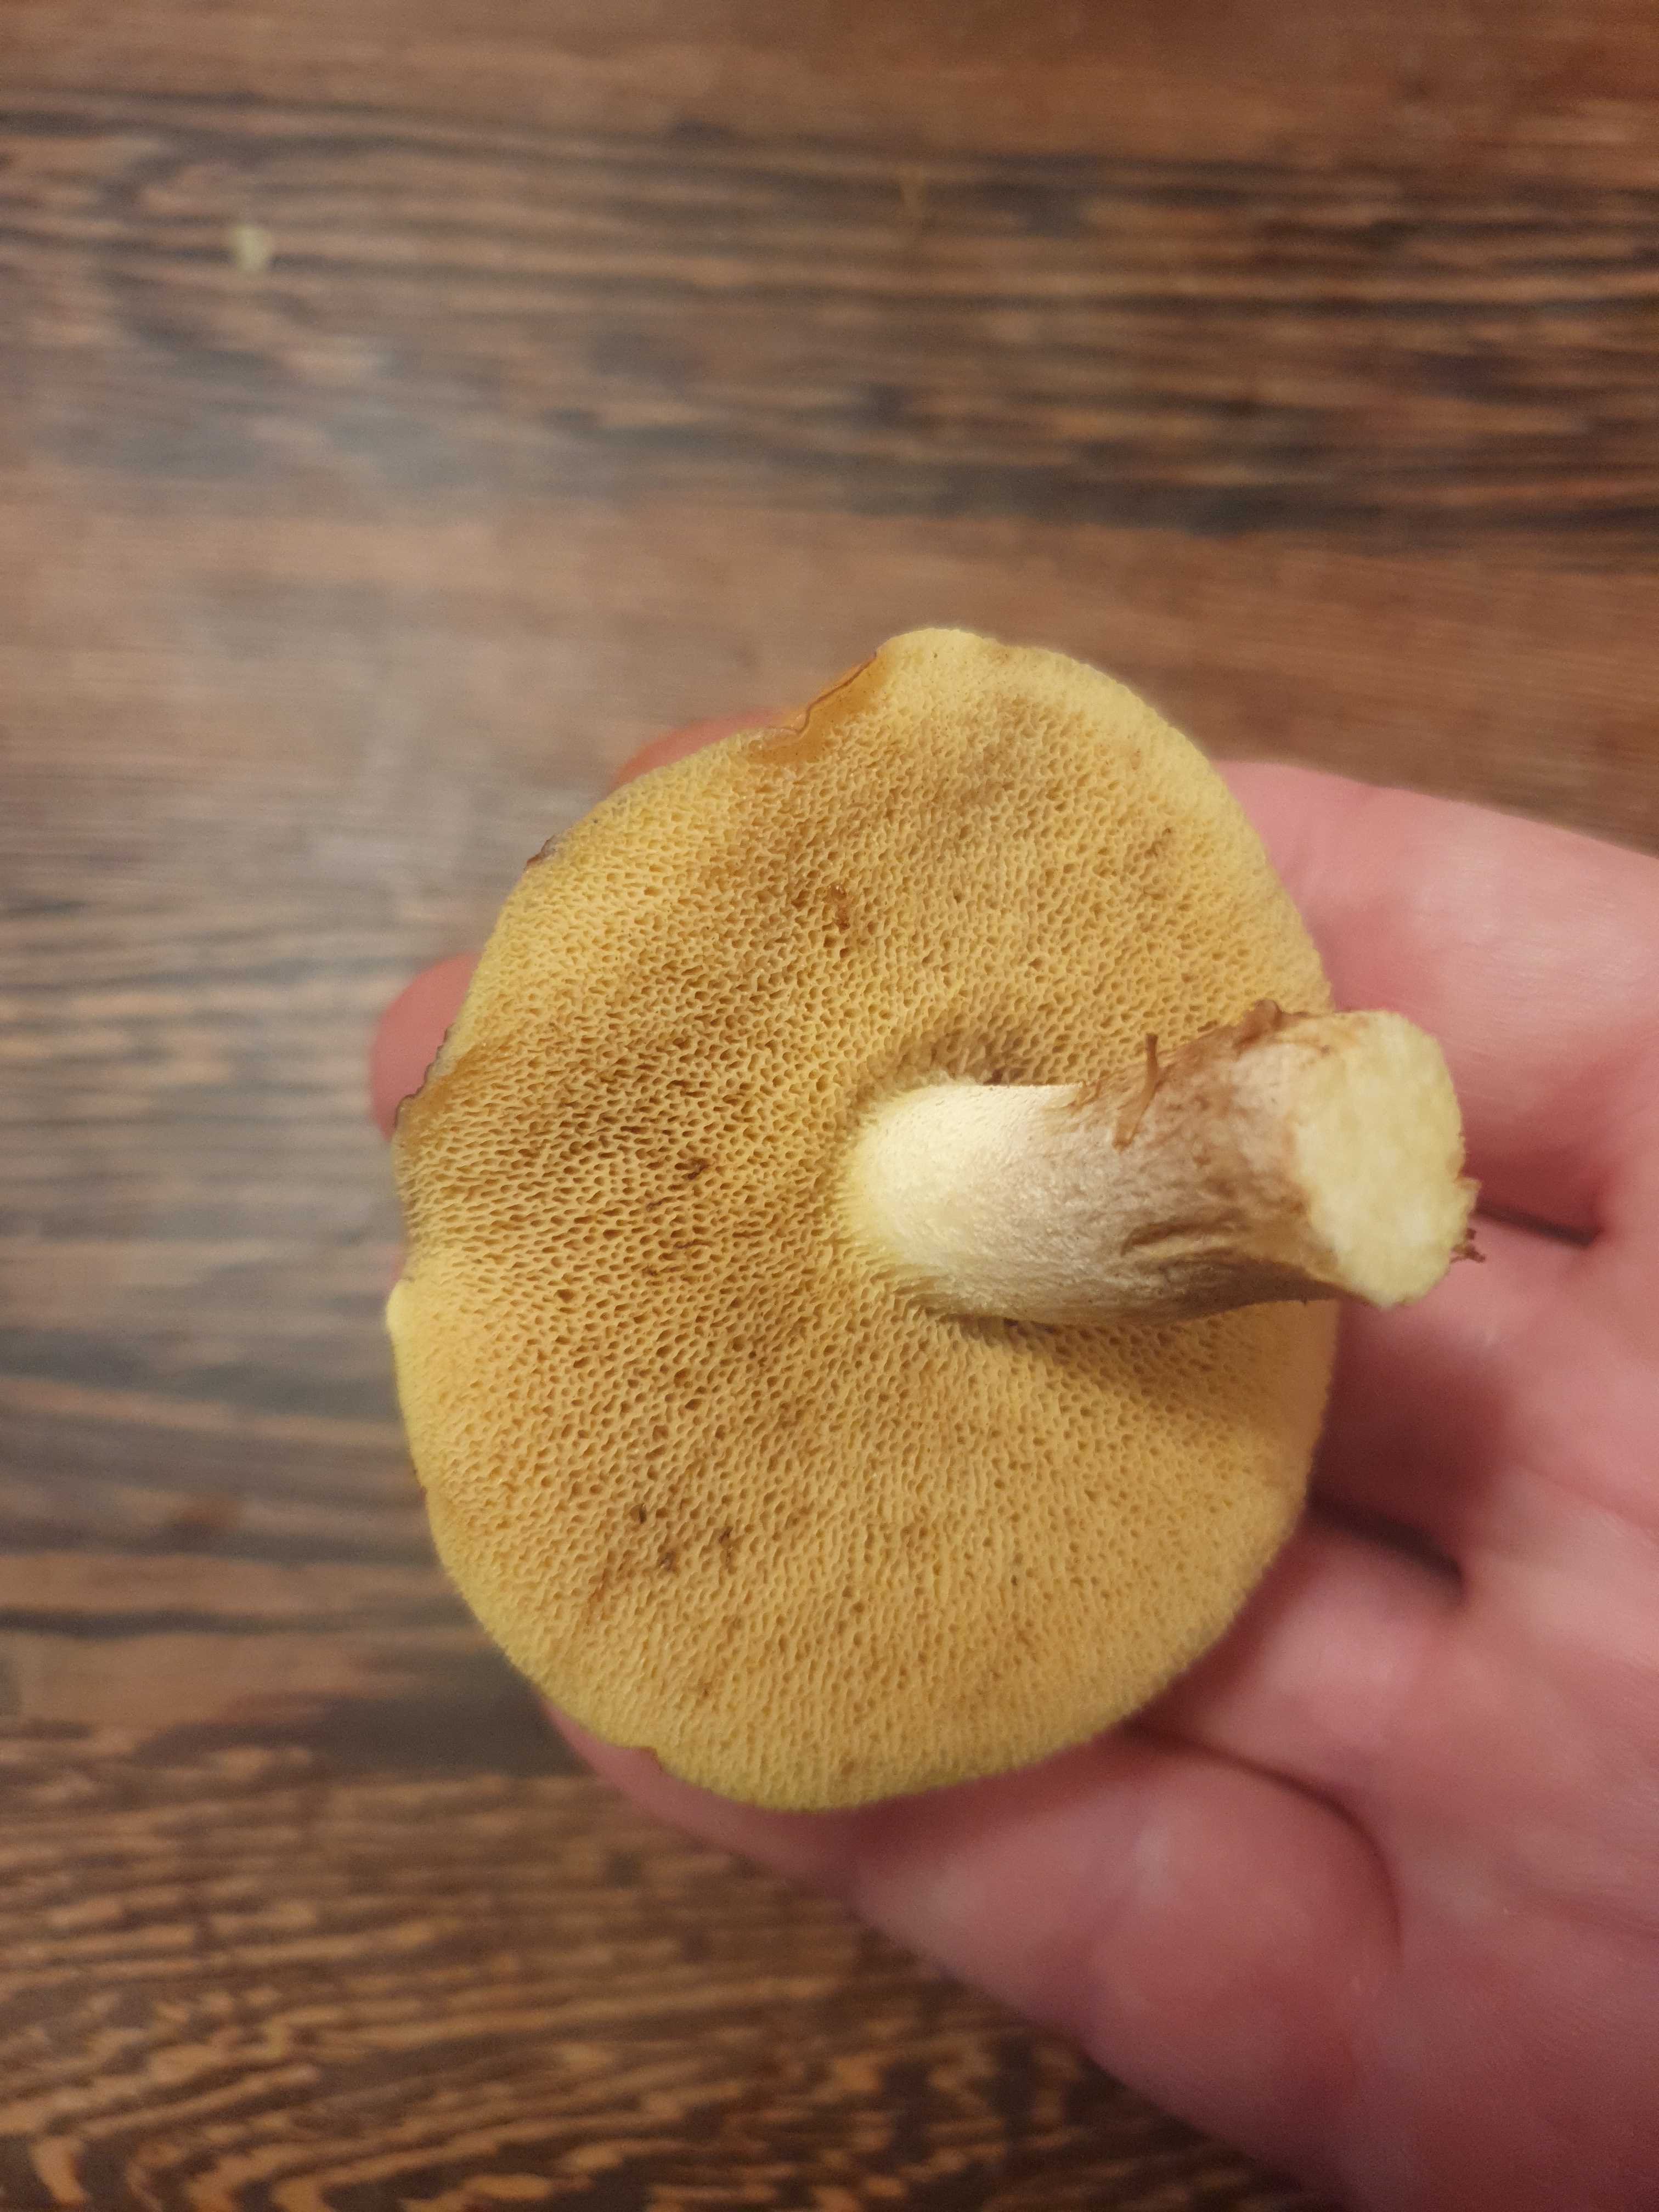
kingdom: Fungi
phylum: Basidiomycota
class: Agaricomycetes
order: Boletales
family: Suillaceae
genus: Suillus
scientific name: Suillus
